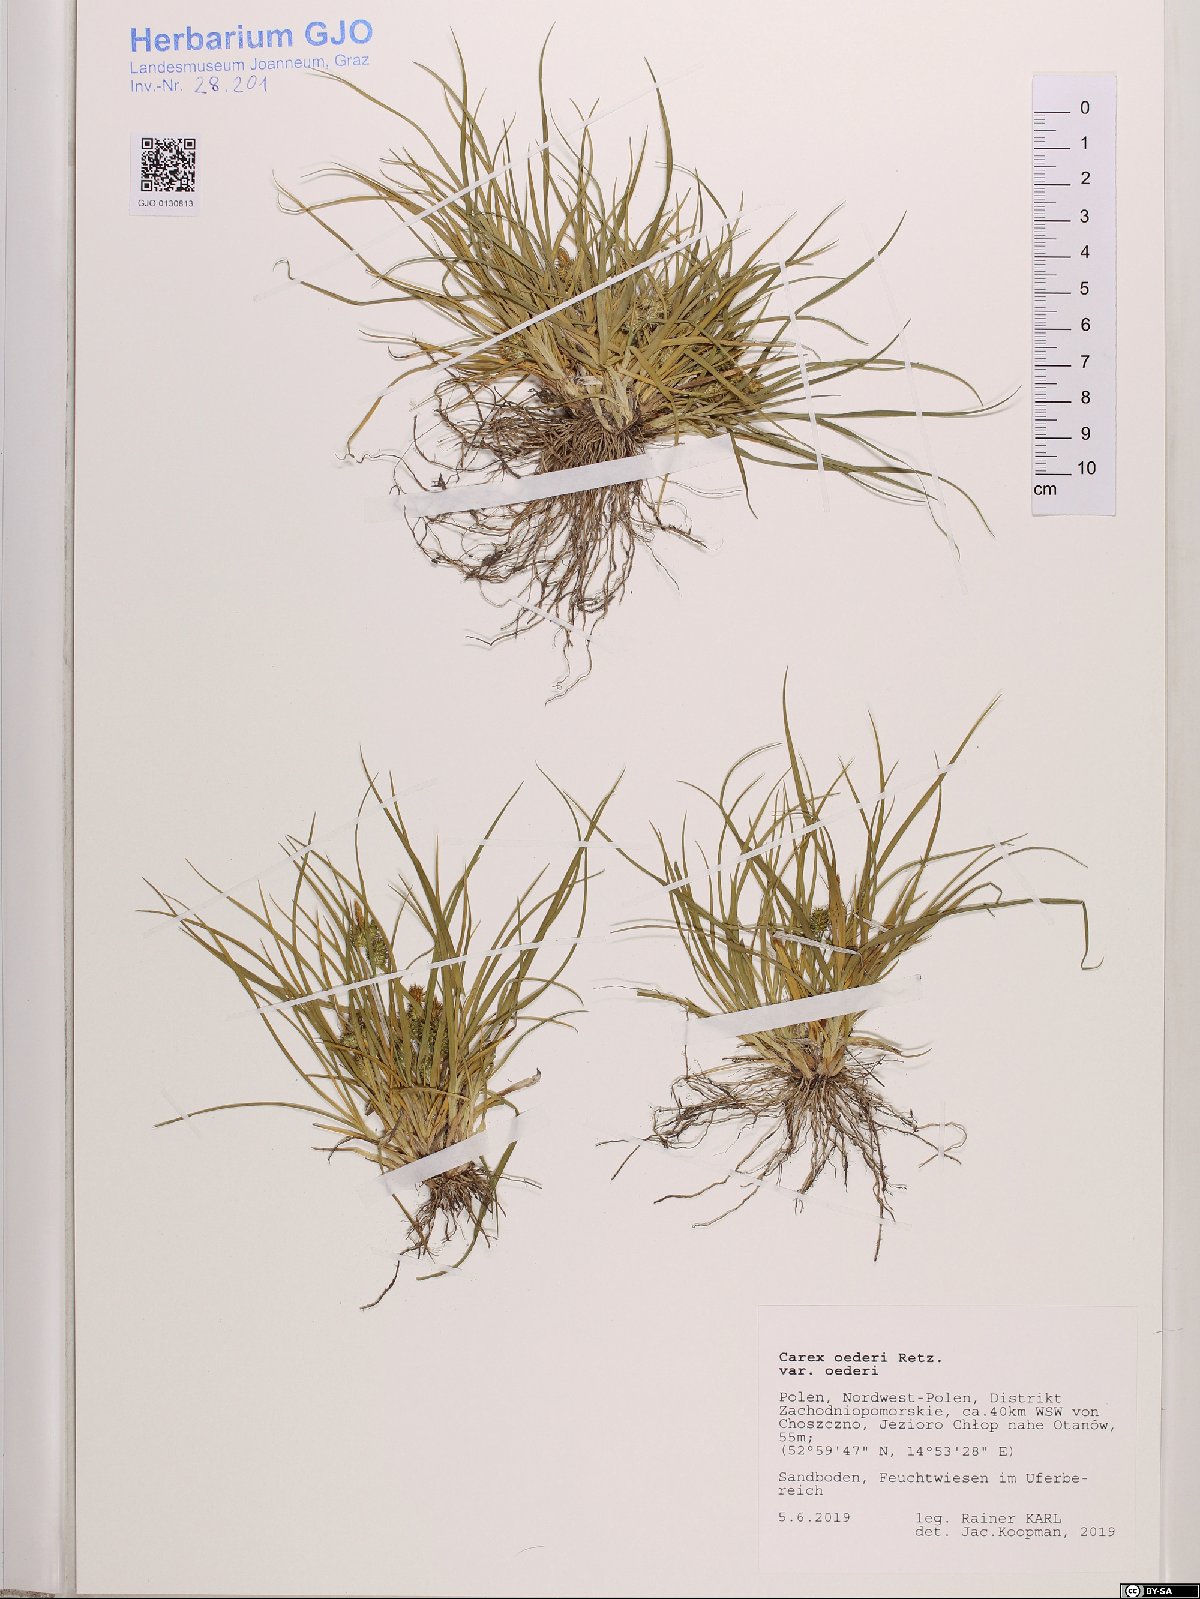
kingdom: Plantae
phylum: Tracheophyta
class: Liliopsida
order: Poales
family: Cyperaceae
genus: Carex
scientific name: Carex oederi
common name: Common & small-fruited yellow-sedge
